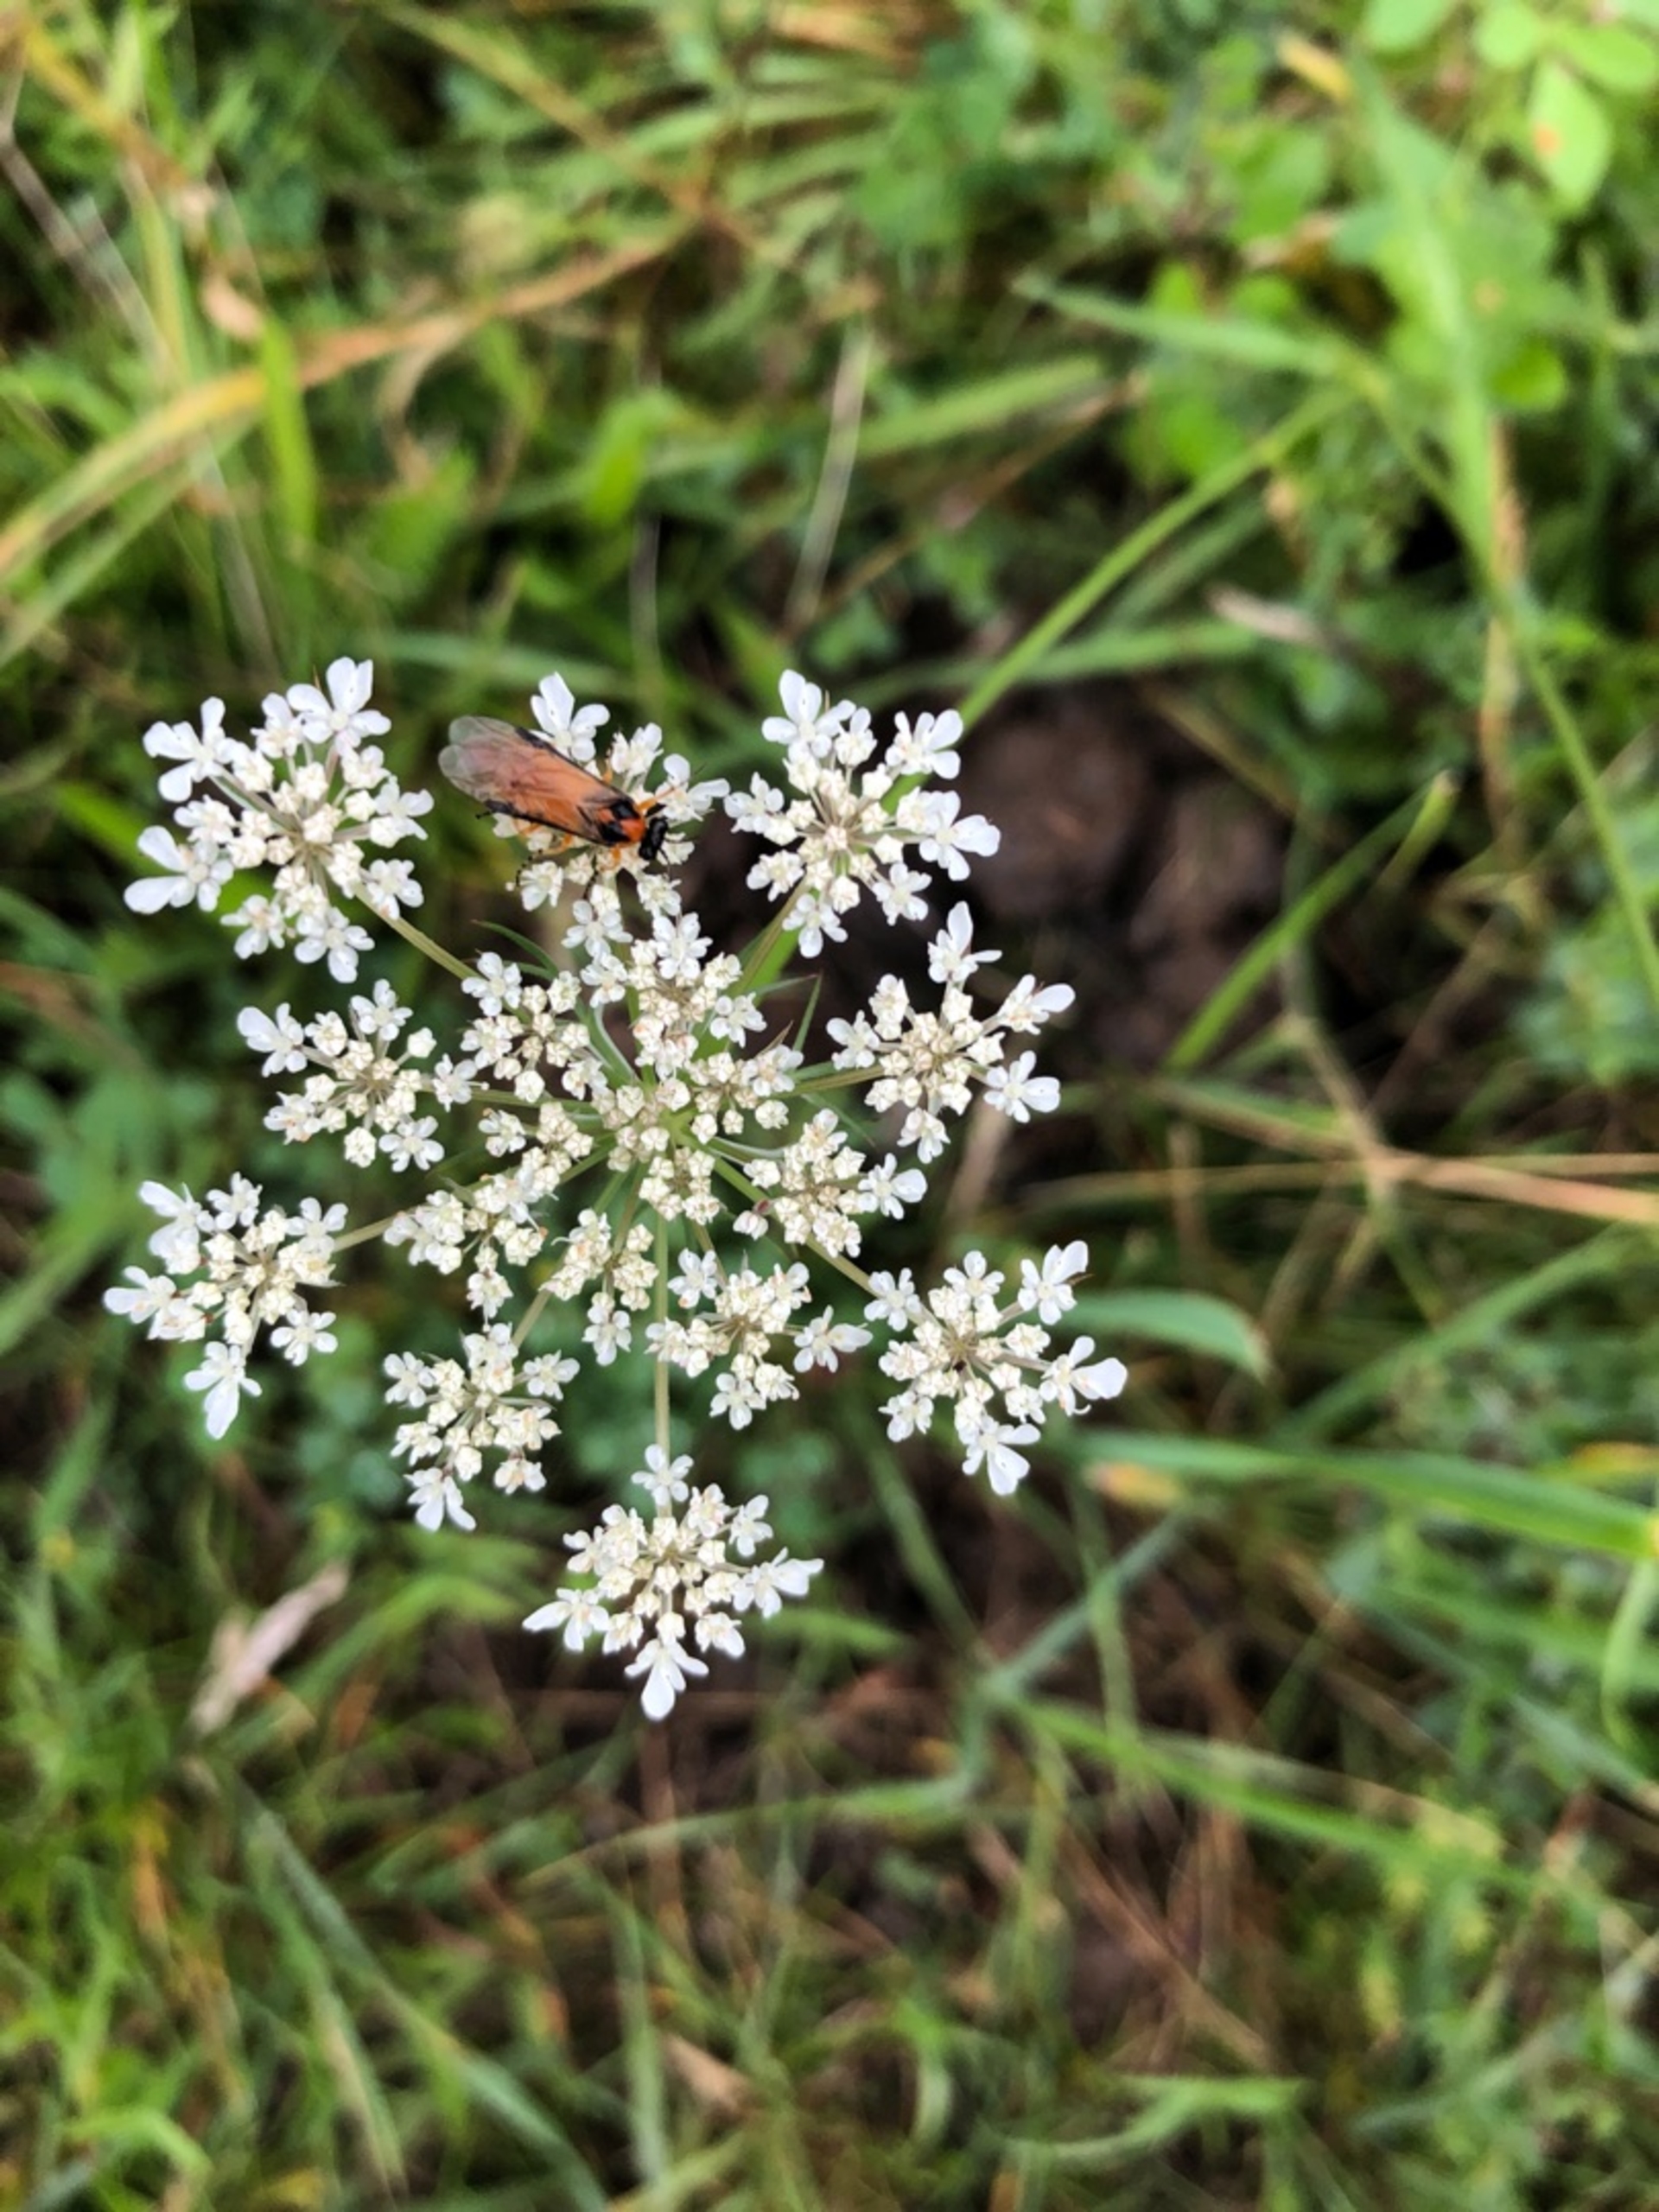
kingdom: Plantae
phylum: Tracheophyta
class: Magnoliopsida
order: Apiales
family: Apiaceae
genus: Daucus
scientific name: Daucus carota
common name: Vild gulerod
